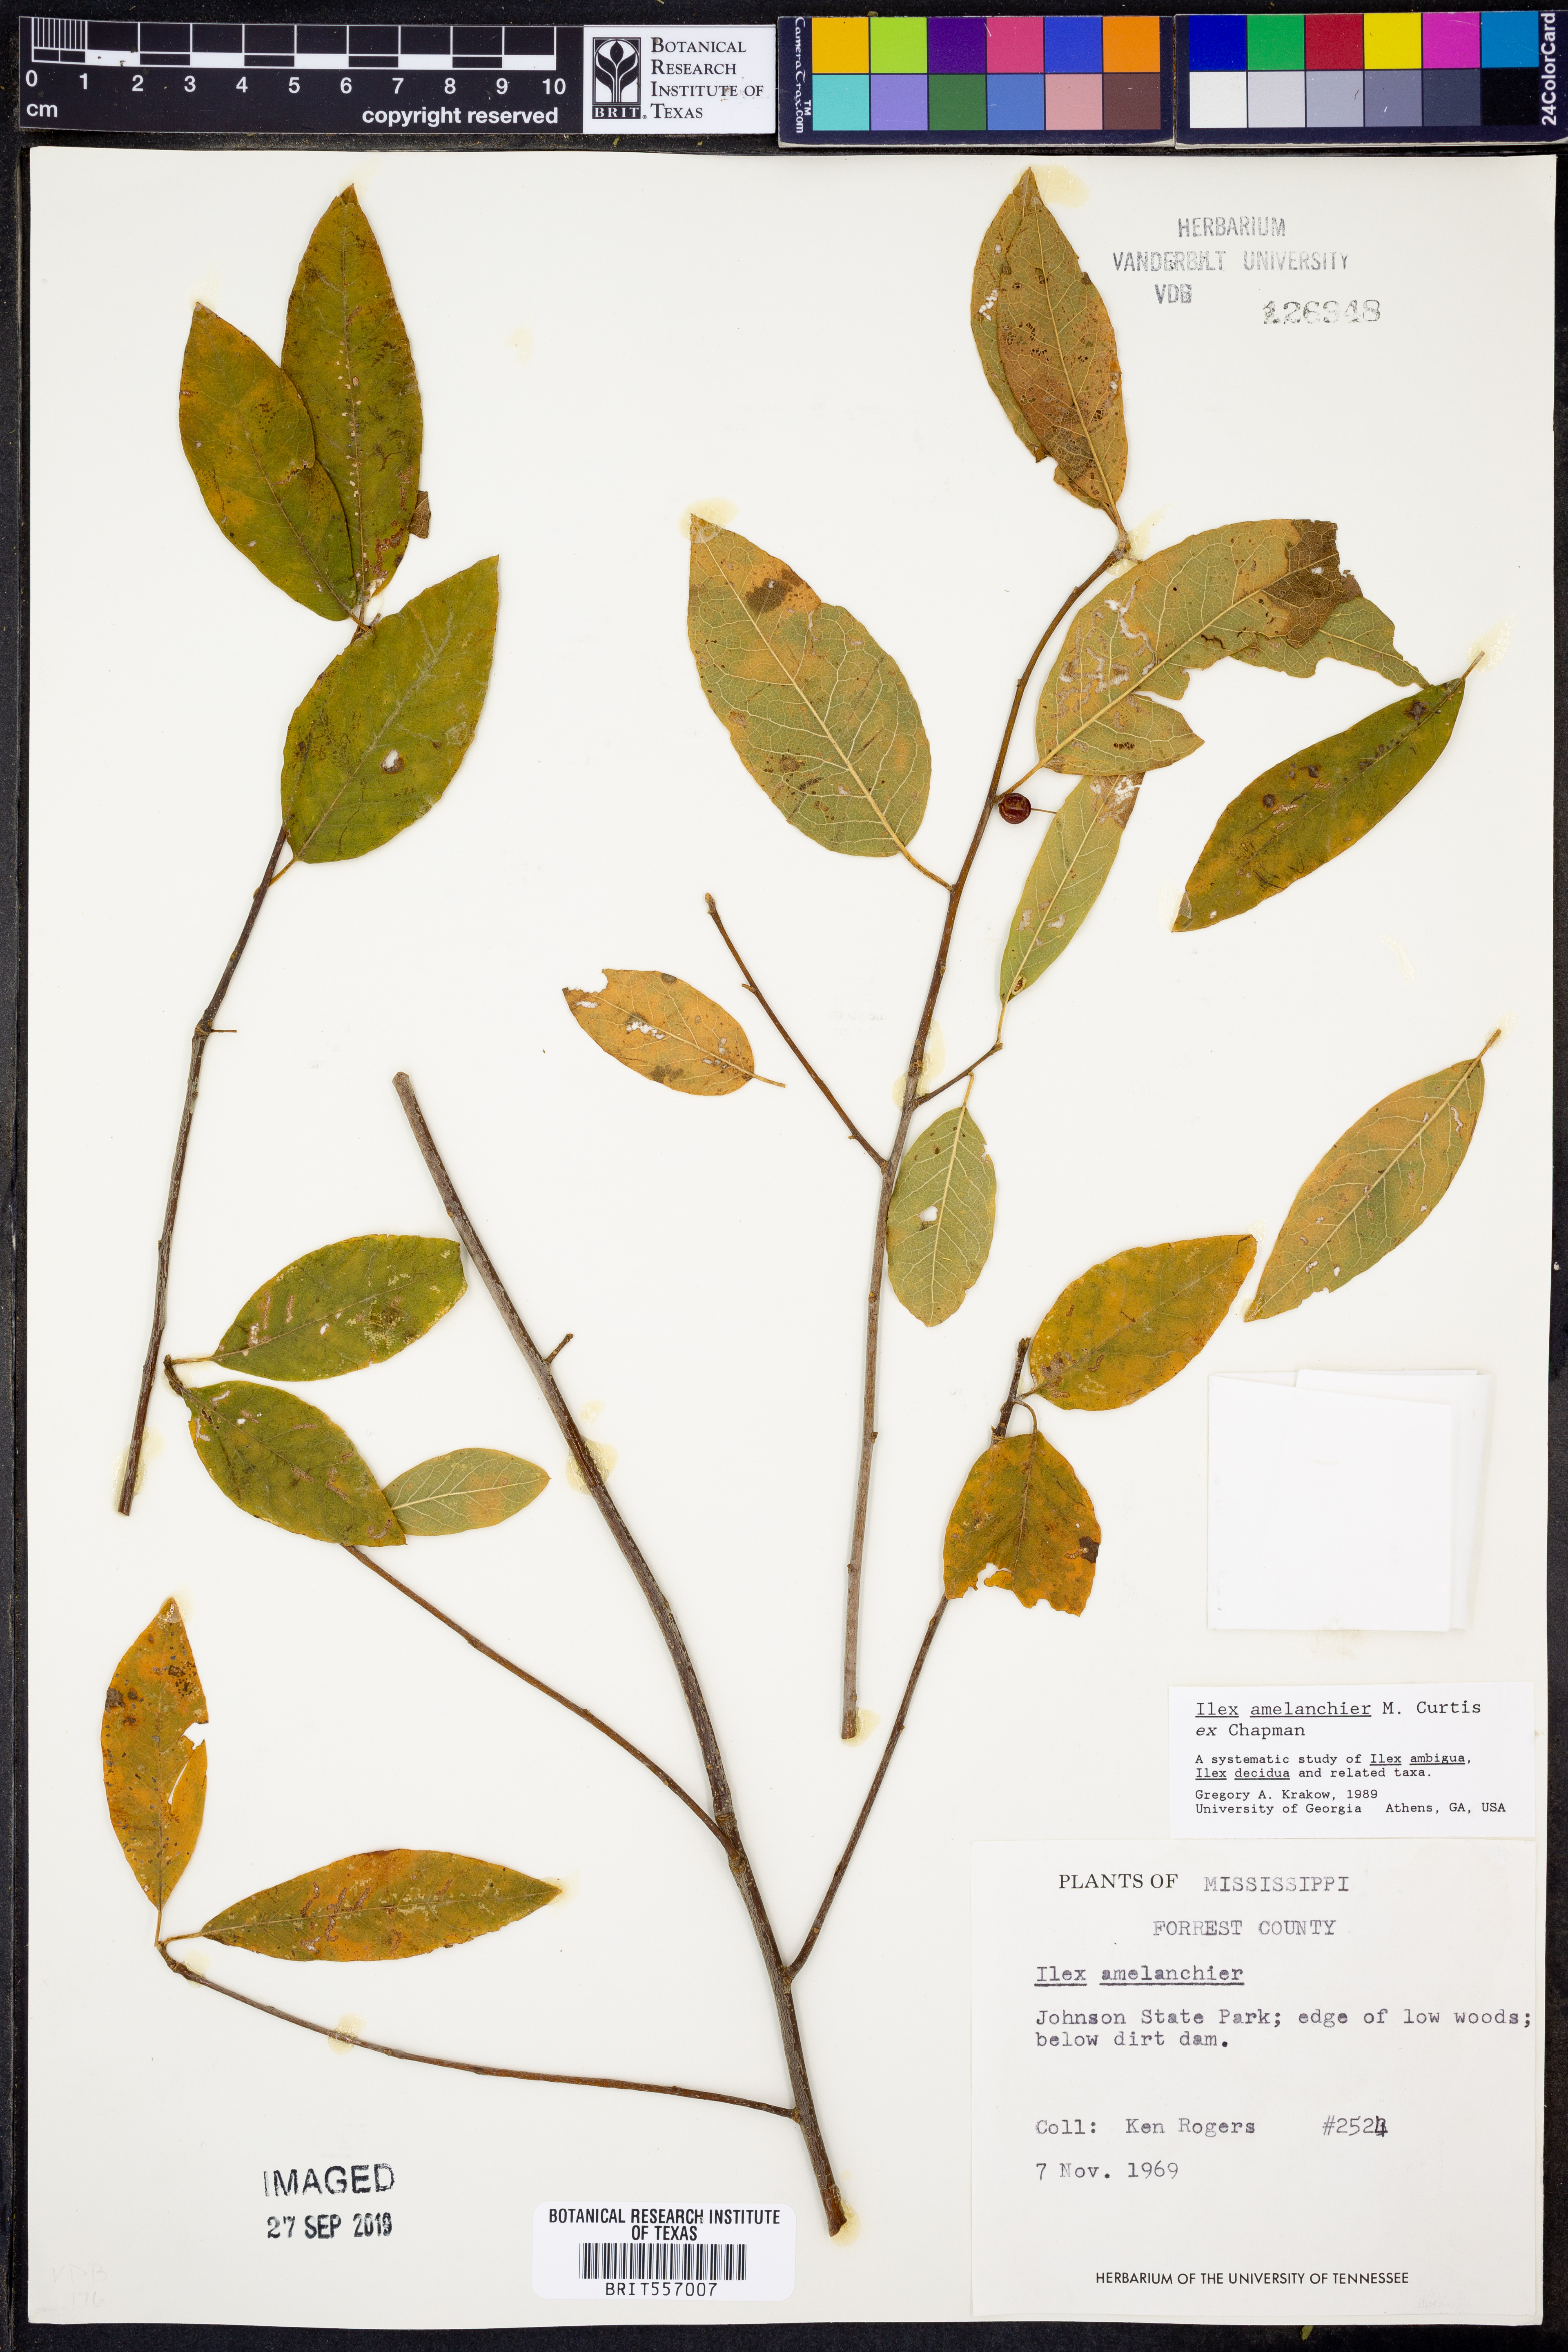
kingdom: Plantae
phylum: Tracheophyta
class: Magnoliopsida
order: Aquifoliales
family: Aquifoliaceae
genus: Ilex
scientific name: Ilex amelanchier
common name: Sarvis holly
